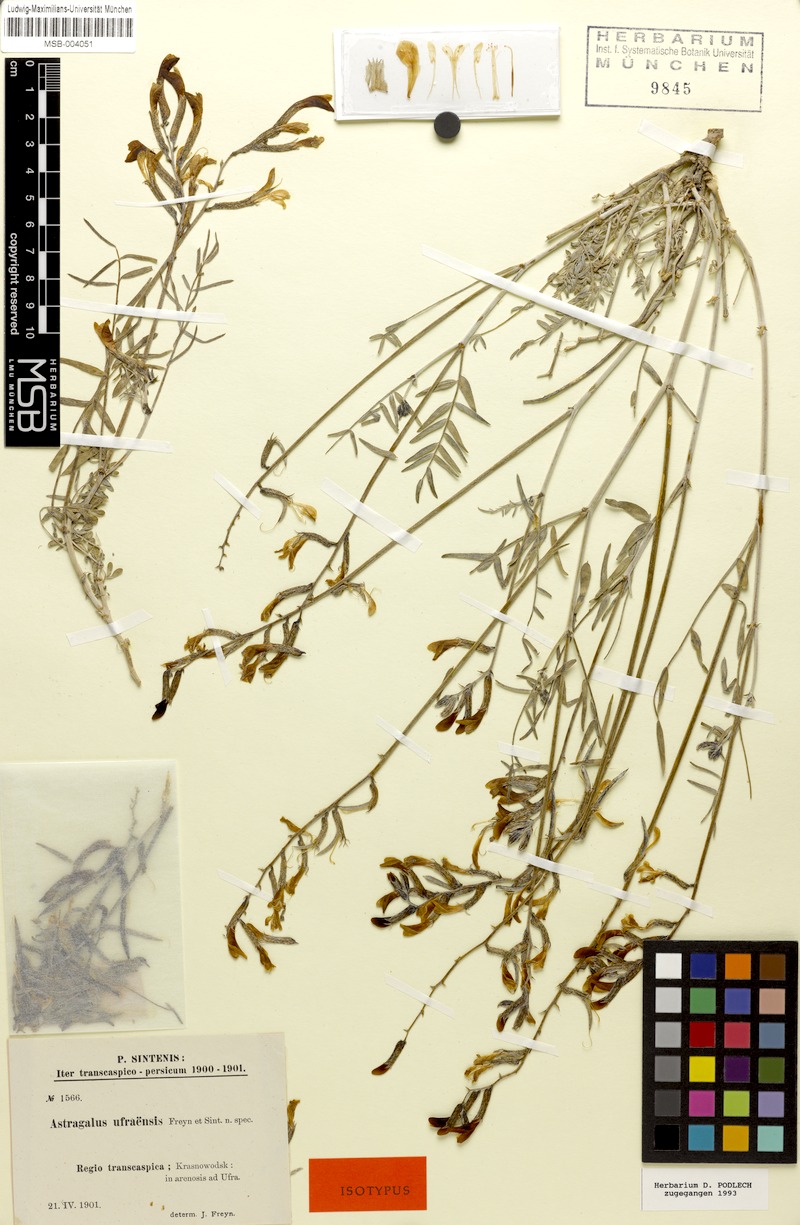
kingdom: Plantae
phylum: Tracheophyta
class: Magnoliopsida
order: Fabales
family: Fabaceae
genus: Astragalus
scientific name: Astragalus juratzkanus
